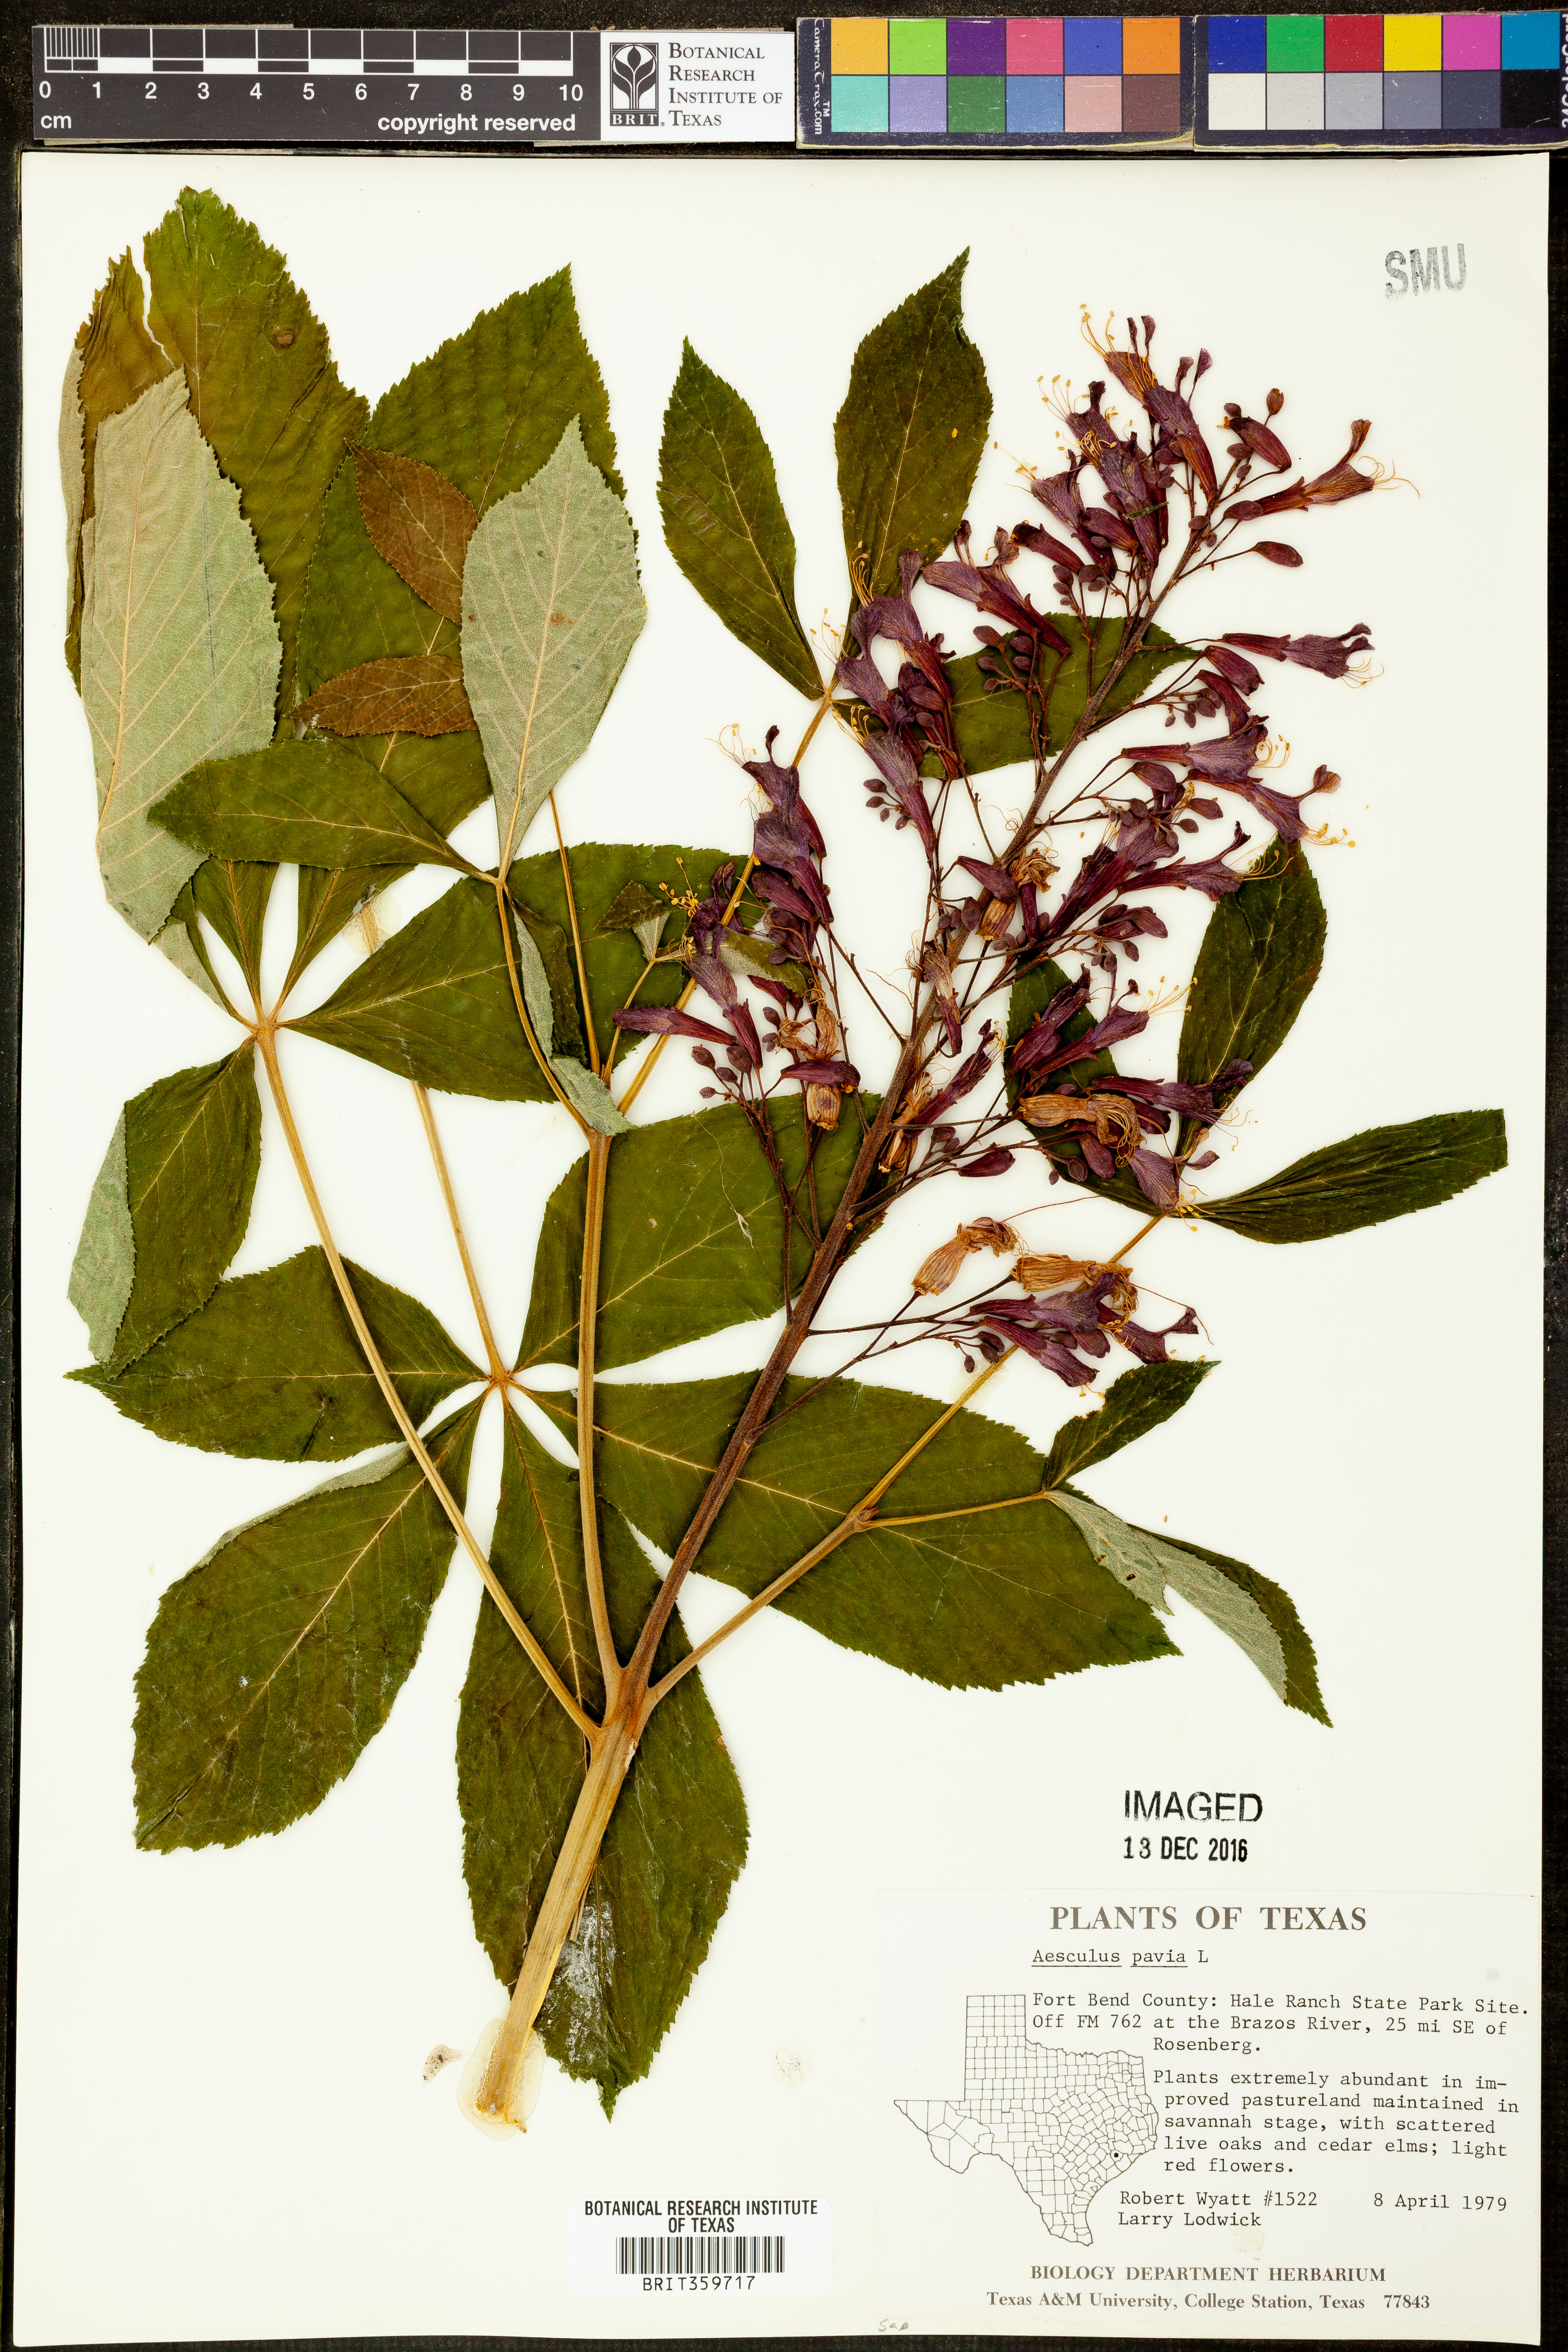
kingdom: Plantae
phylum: Tracheophyta
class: Magnoliopsida
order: Sapindales
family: Sapindaceae
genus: Aesculus
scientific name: Aesculus pavia
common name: Red buckeye
